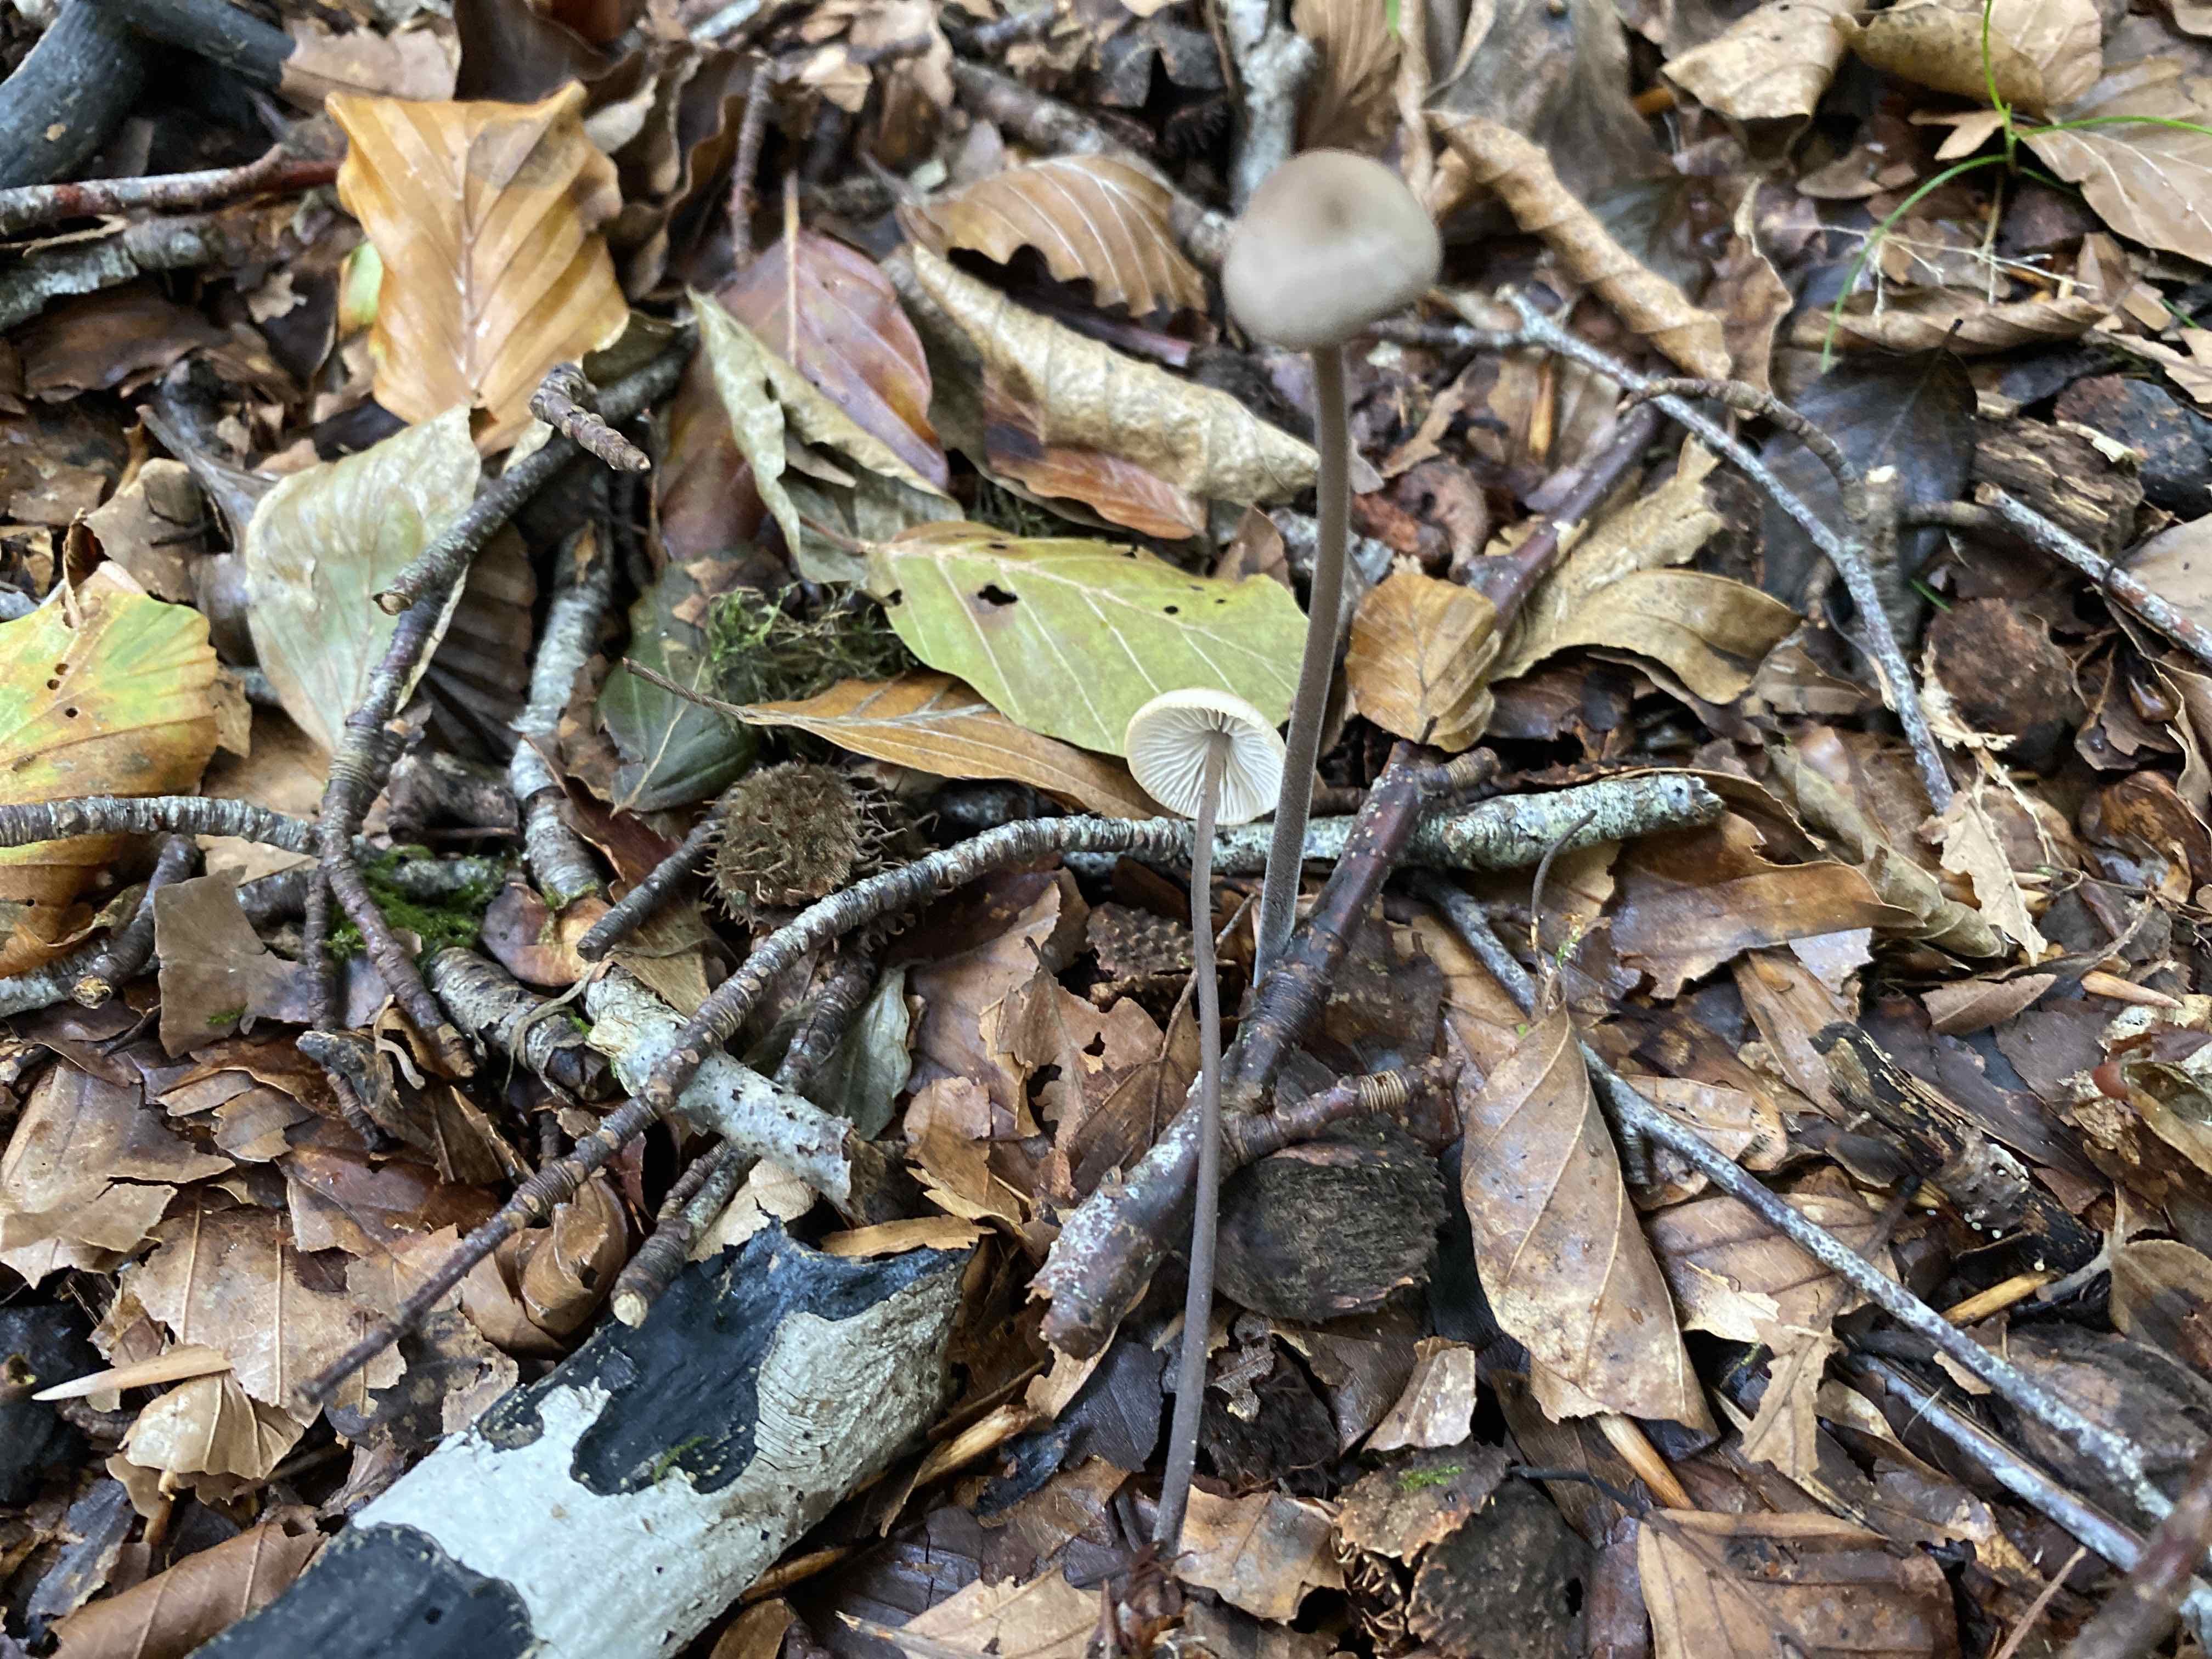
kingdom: Fungi
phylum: Basidiomycota
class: Agaricomycetes
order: Agaricales
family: Omphalotaceae
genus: Mycetinis
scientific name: Mycetinis alliaceus
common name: stor løghat
